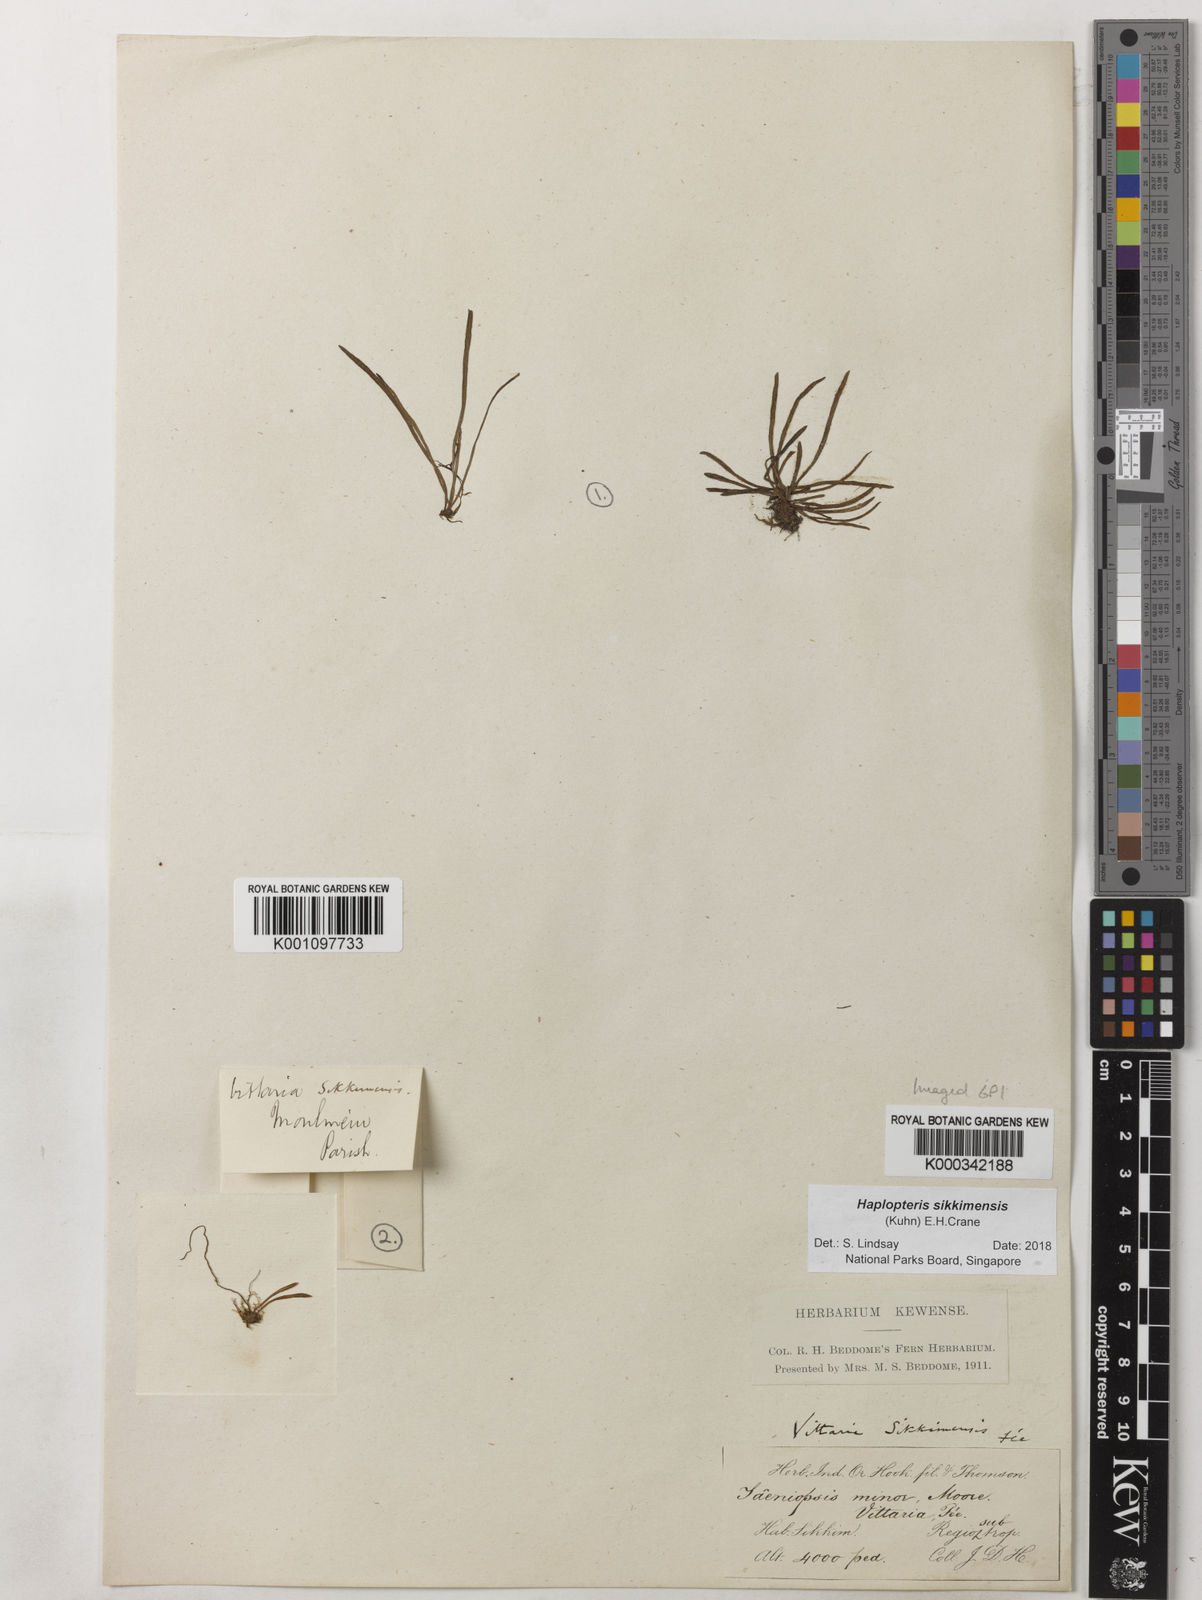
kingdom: Plantae
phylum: Tracheophyta
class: Polypodiopsida
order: Polypodiales
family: Pteridaceae
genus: Haplopteris
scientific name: Haplopteris sikkimensis
